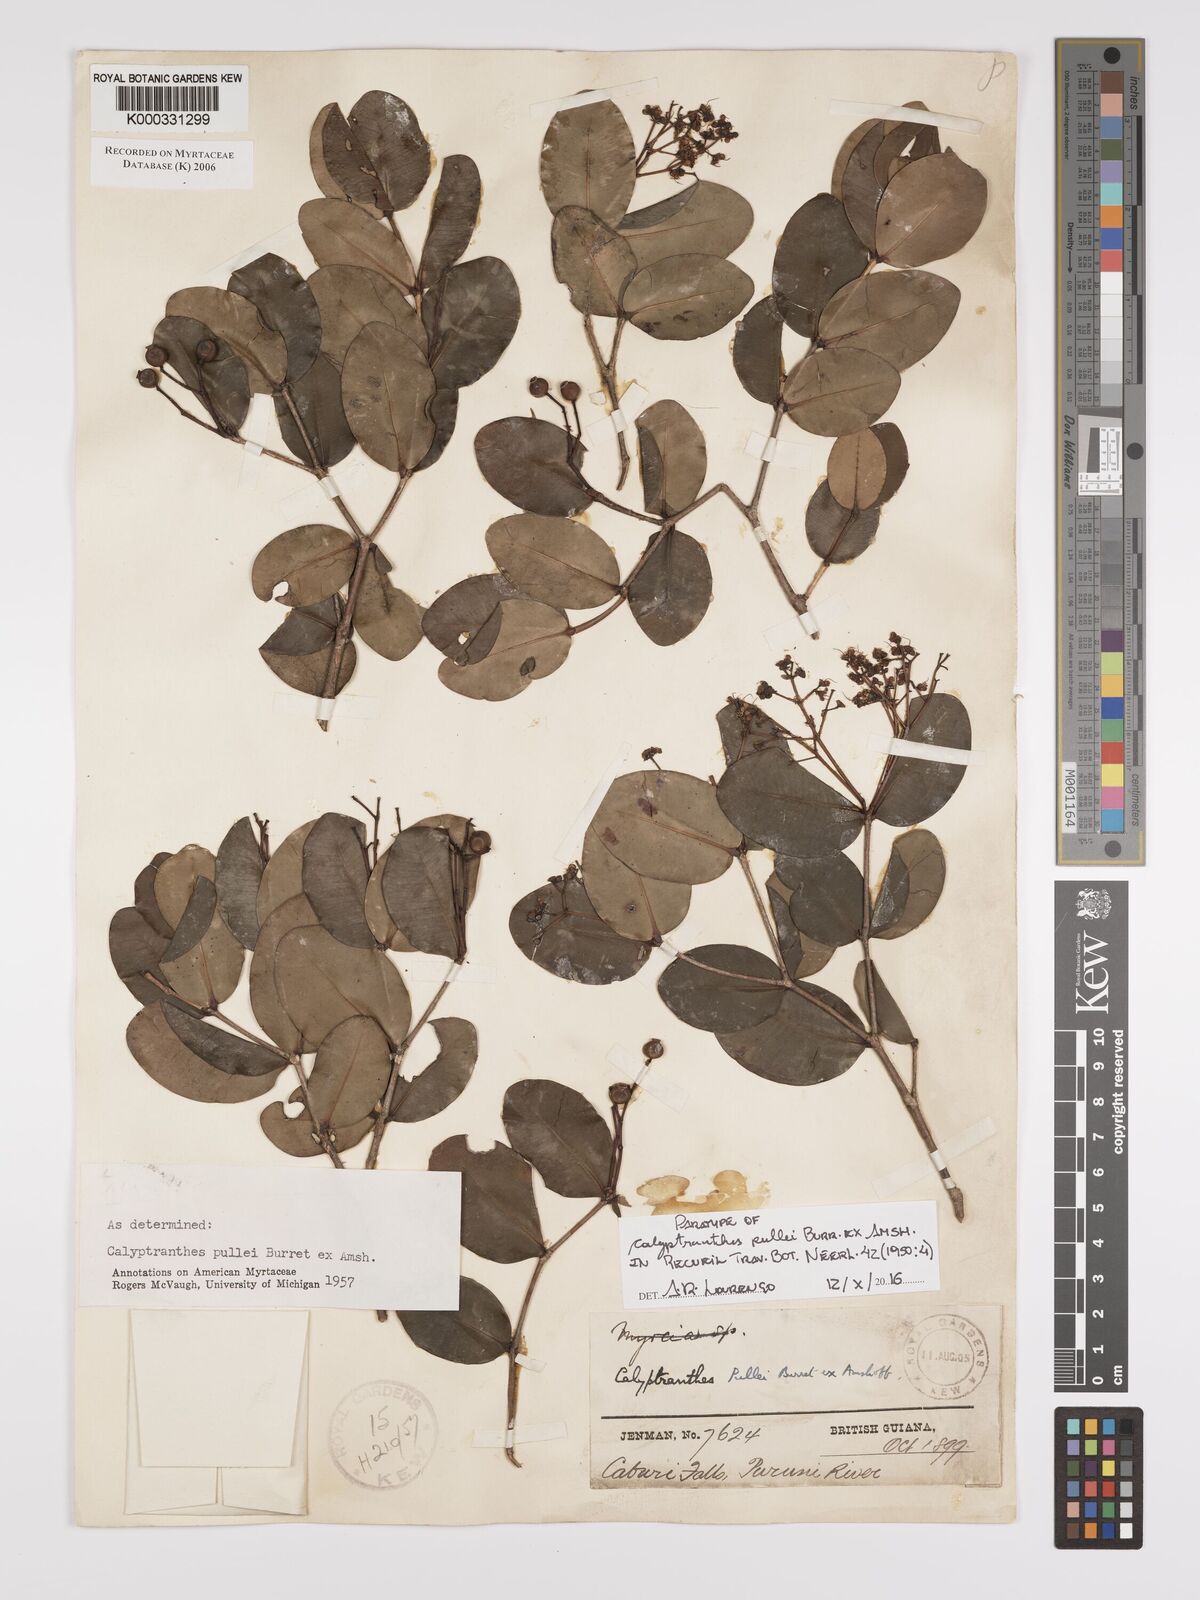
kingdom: Plantae
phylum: Tracheophyta
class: Magnoliopsida
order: Myrtales
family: Myrtaceae
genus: Myrcia
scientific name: Myrcia pullei
